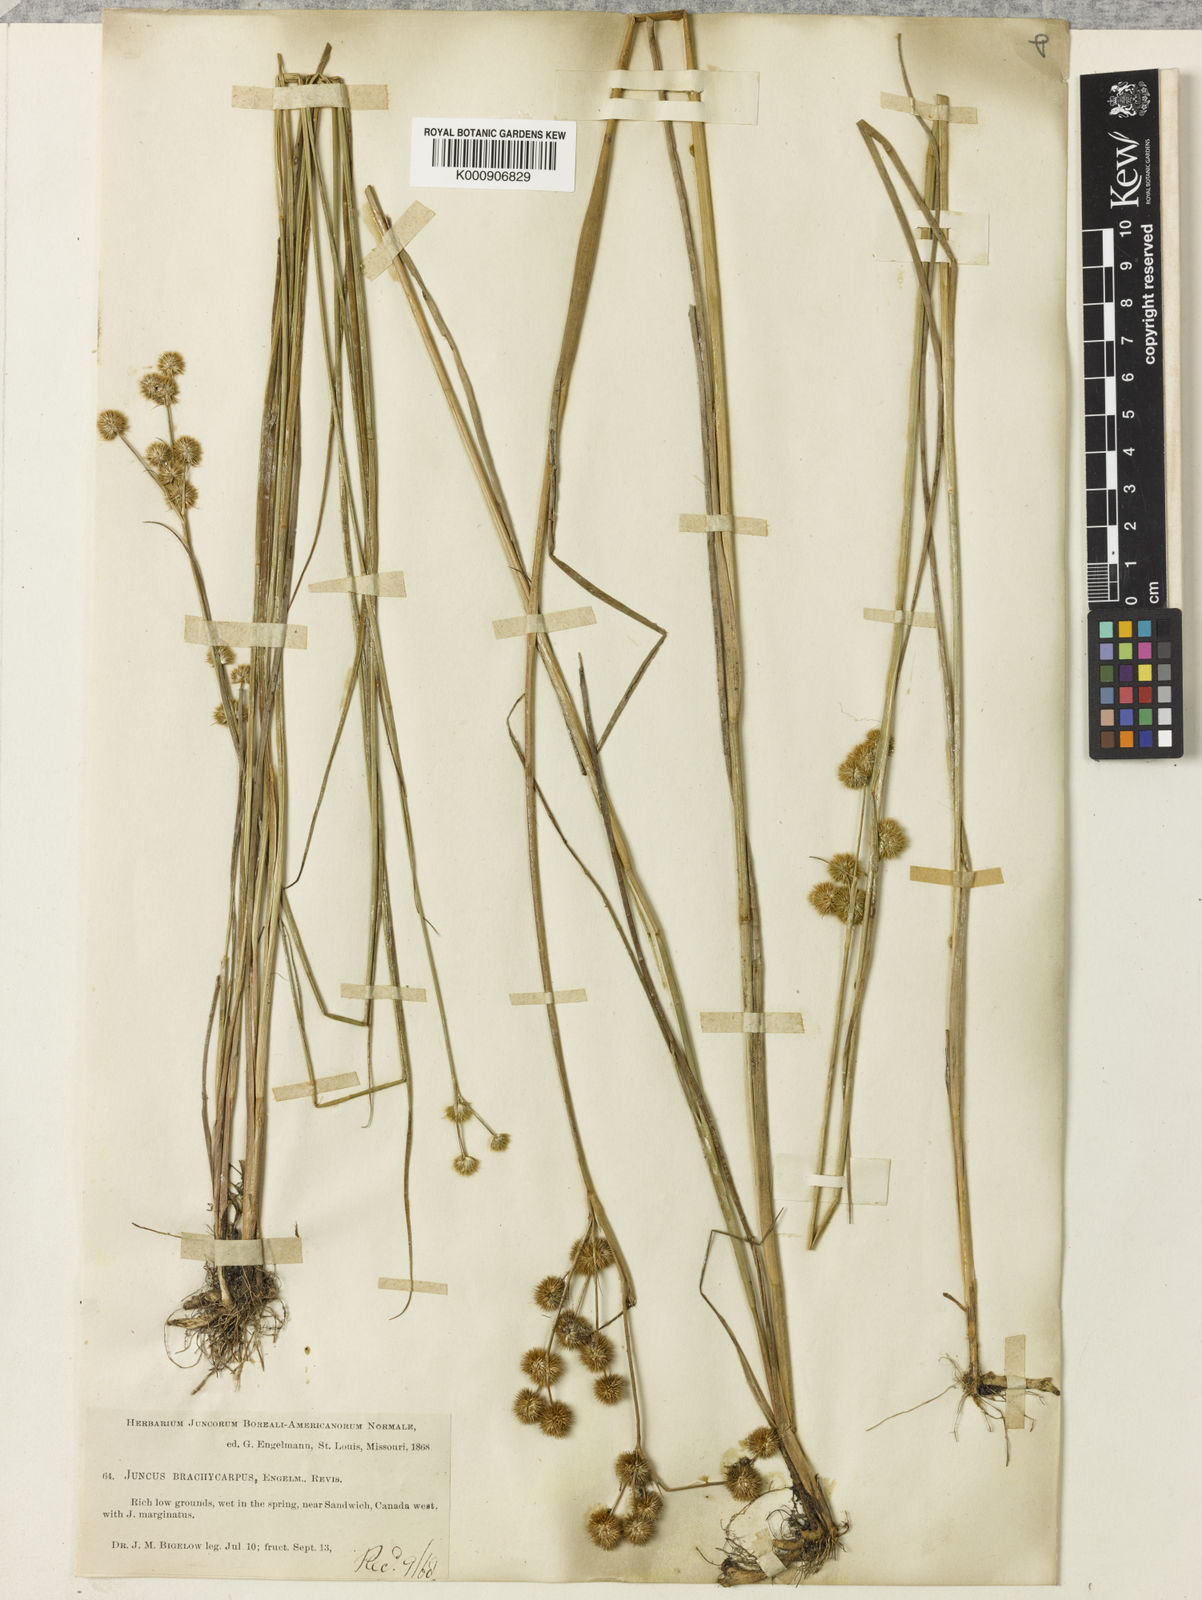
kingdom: Plantae
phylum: Tracheophyta
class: Liliopsida
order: Poales
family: Juncaceae
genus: Juncus
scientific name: Juncus brachycarpus
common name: Shore rush
